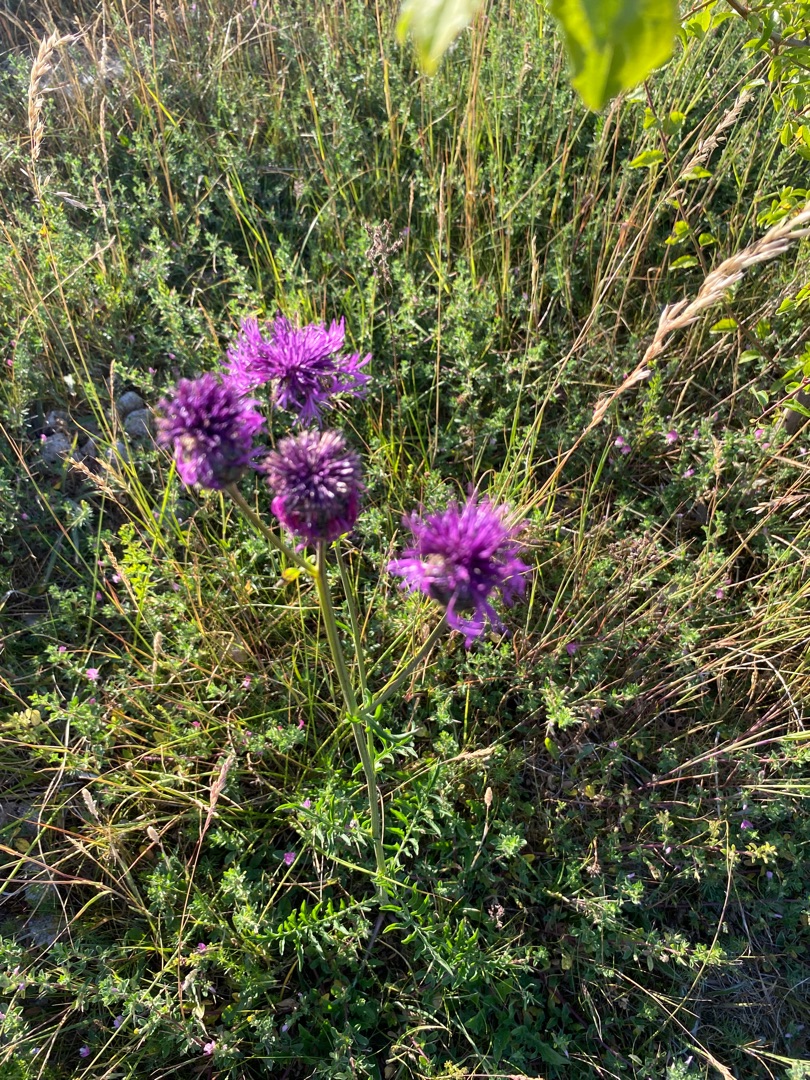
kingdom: Plantae
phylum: Tracheophyta
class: Magnoliopsida
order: Asterales
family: Asteraceae
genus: Centaurea
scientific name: Centaurea scabiosa
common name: Stor knopurt
